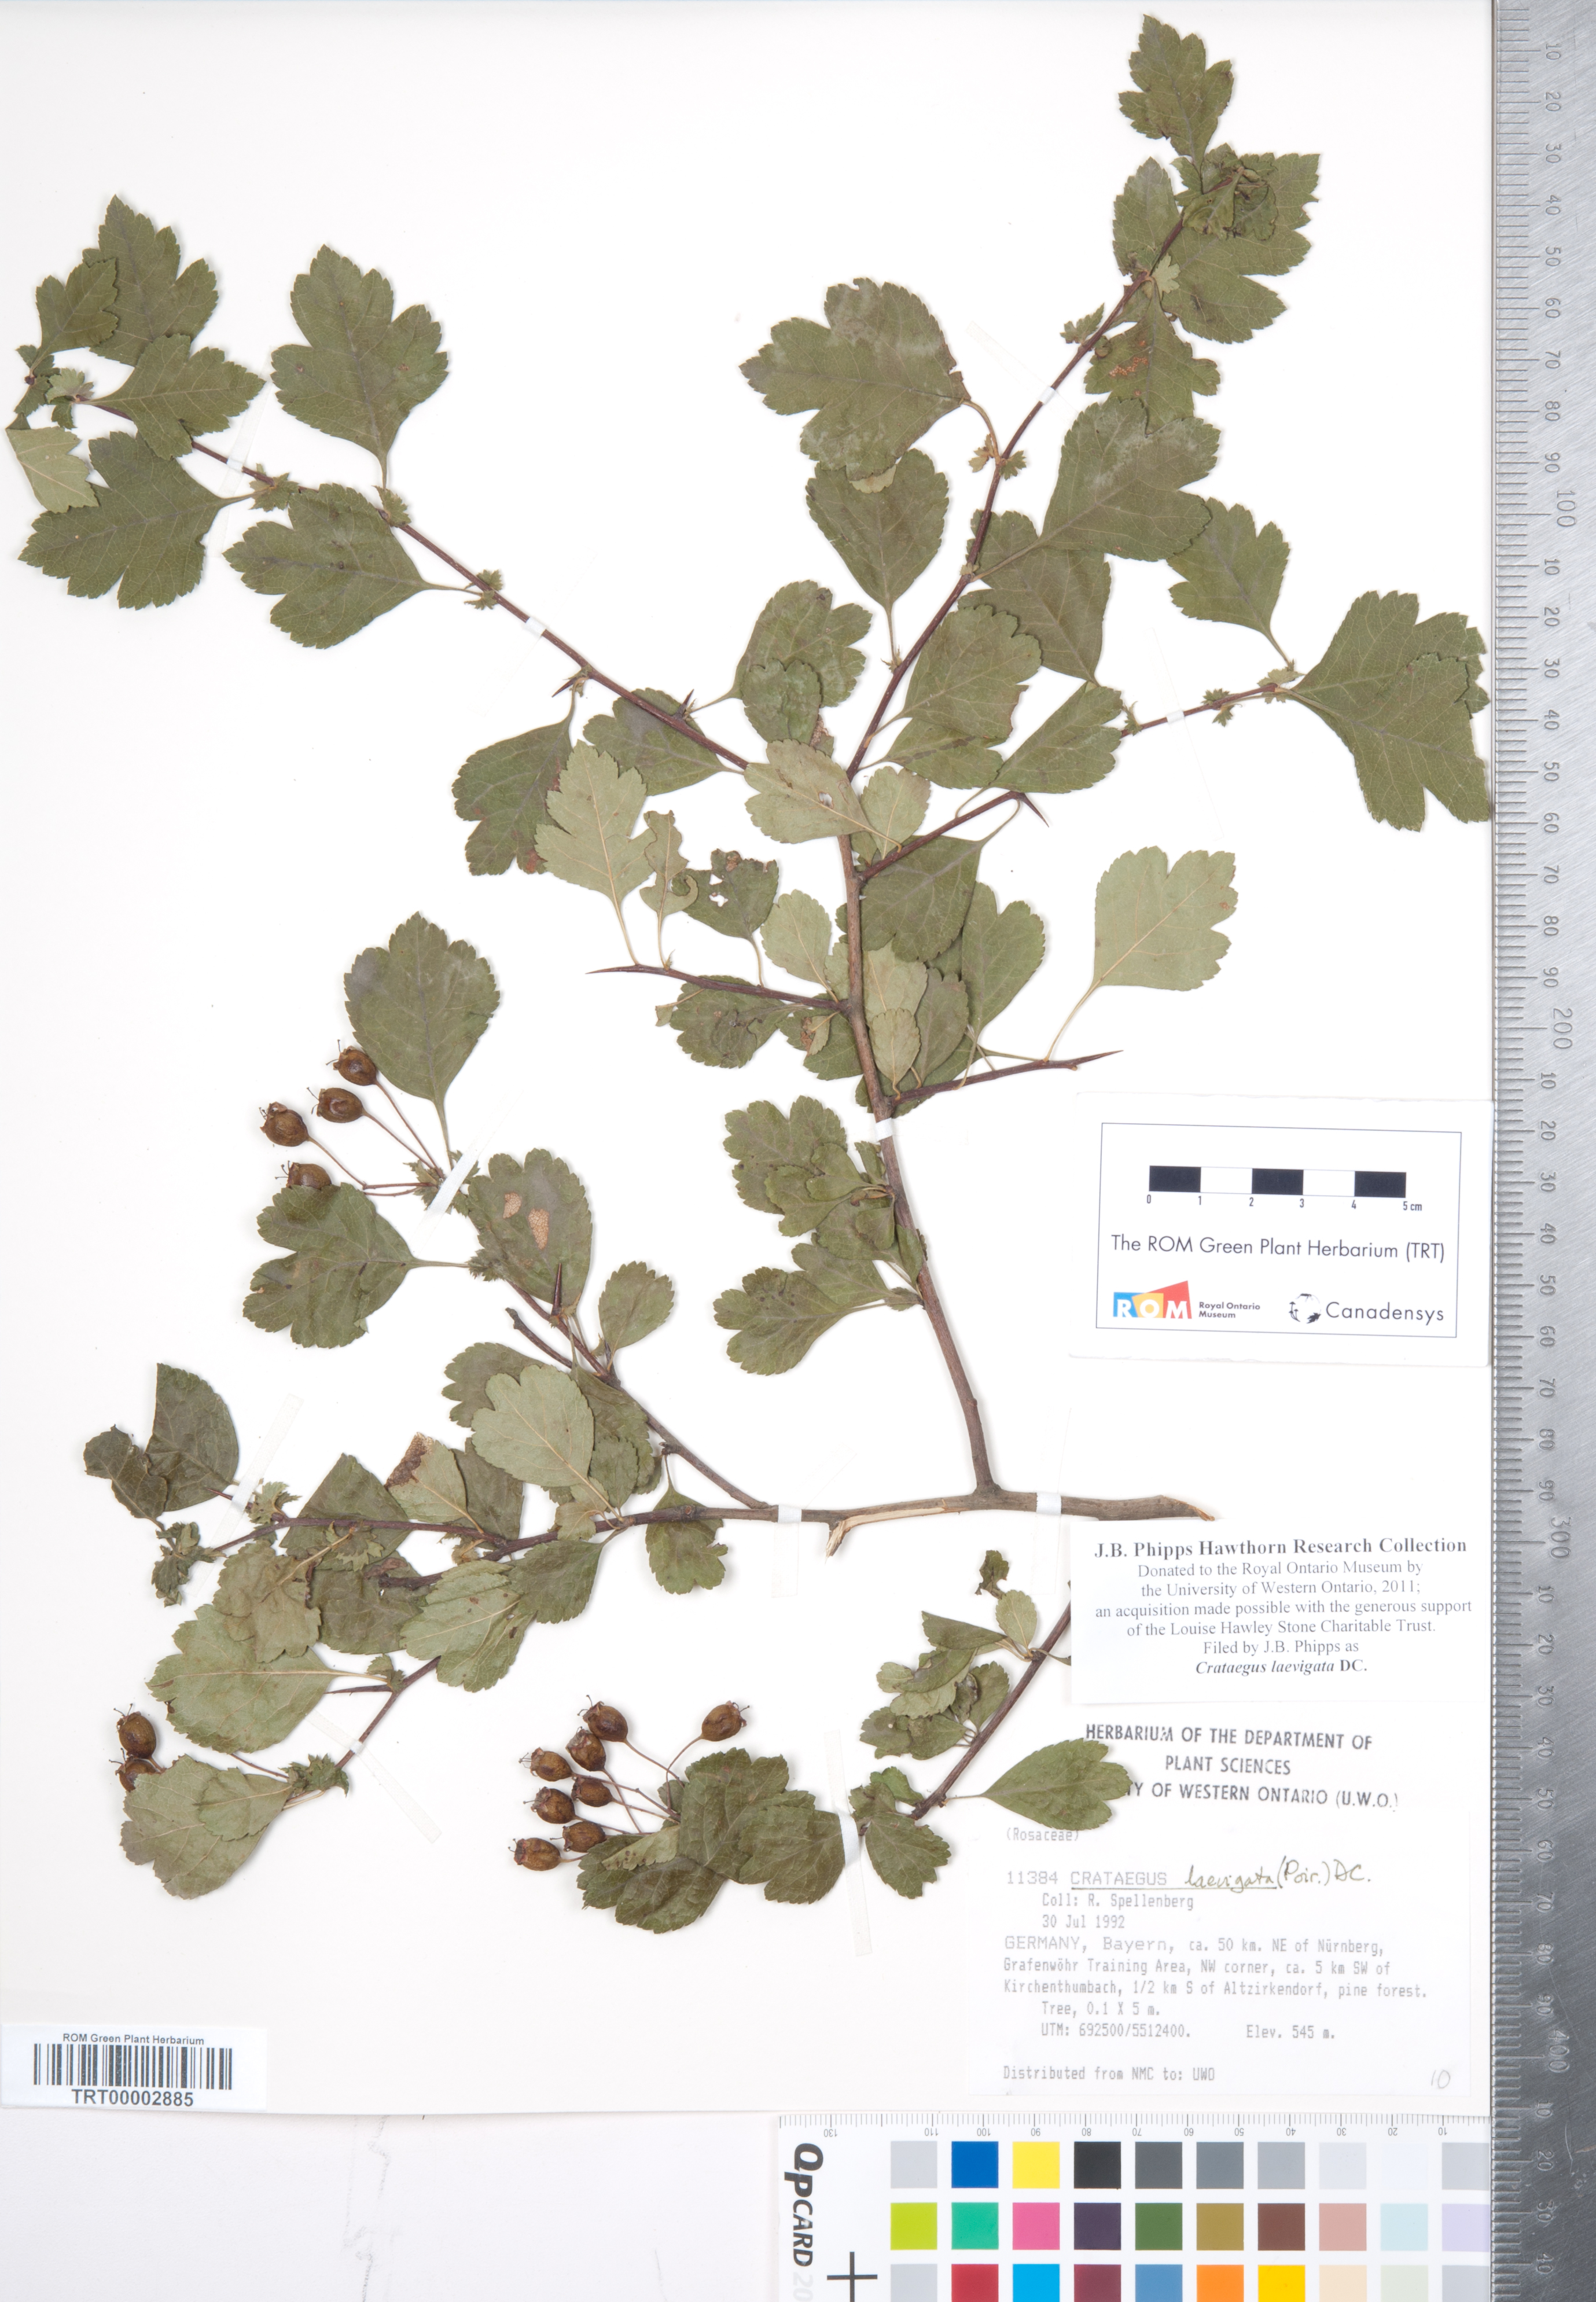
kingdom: Plantae
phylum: Tracheophyta
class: Magnoliopsida
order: Rosales
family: Rosaceae
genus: Crataegus
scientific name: Crataegus laevigata
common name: Midland hawthorn
